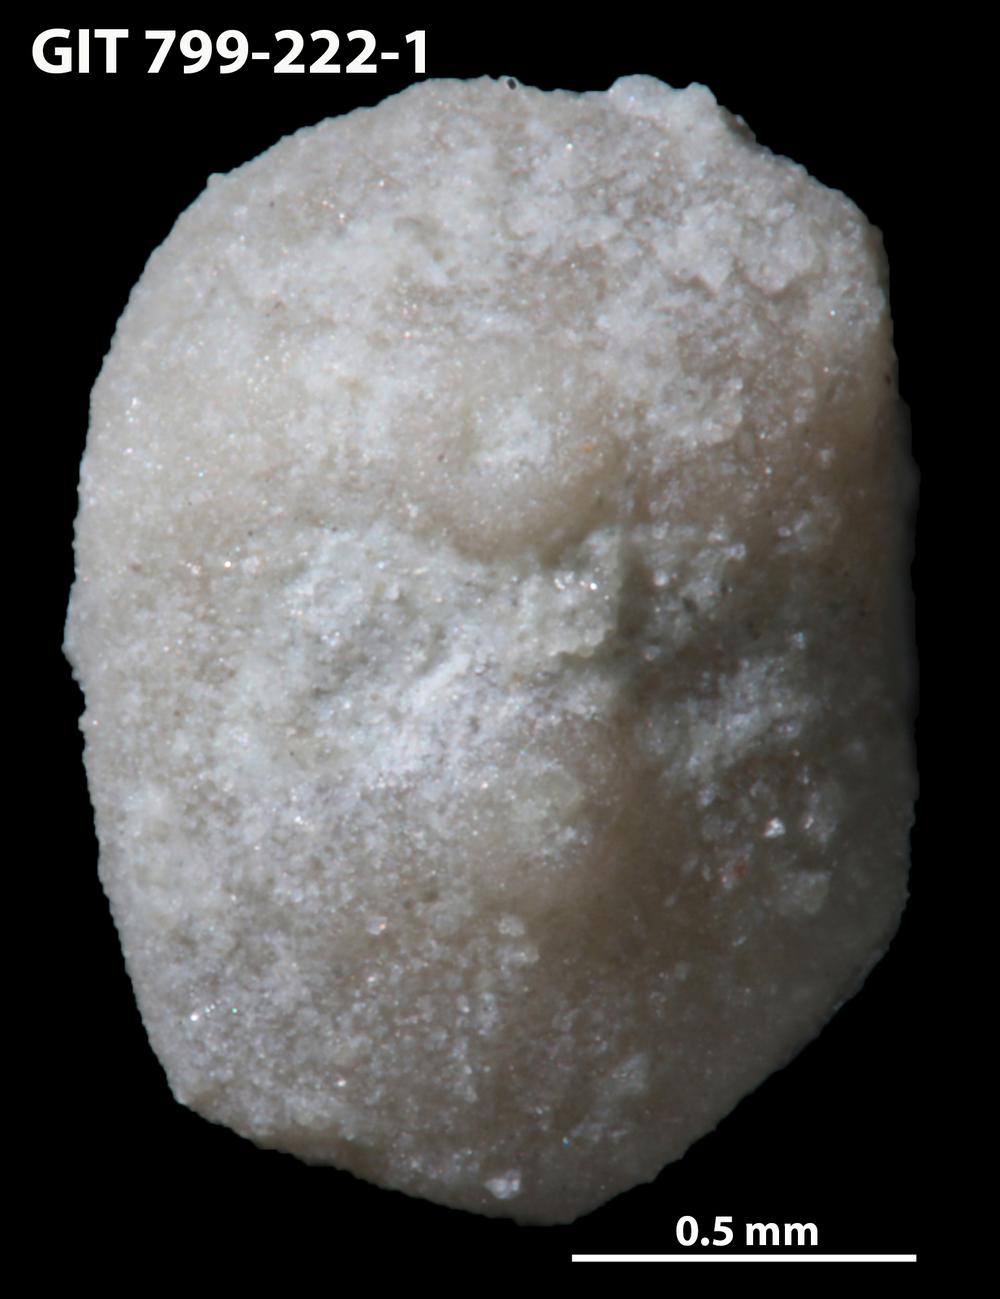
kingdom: Animalia
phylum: Echinodermata
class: Echinoidea
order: Bothriocidaroida
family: Bothriocidaridae
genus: Bothriocidaris
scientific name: Bothriocidaris
